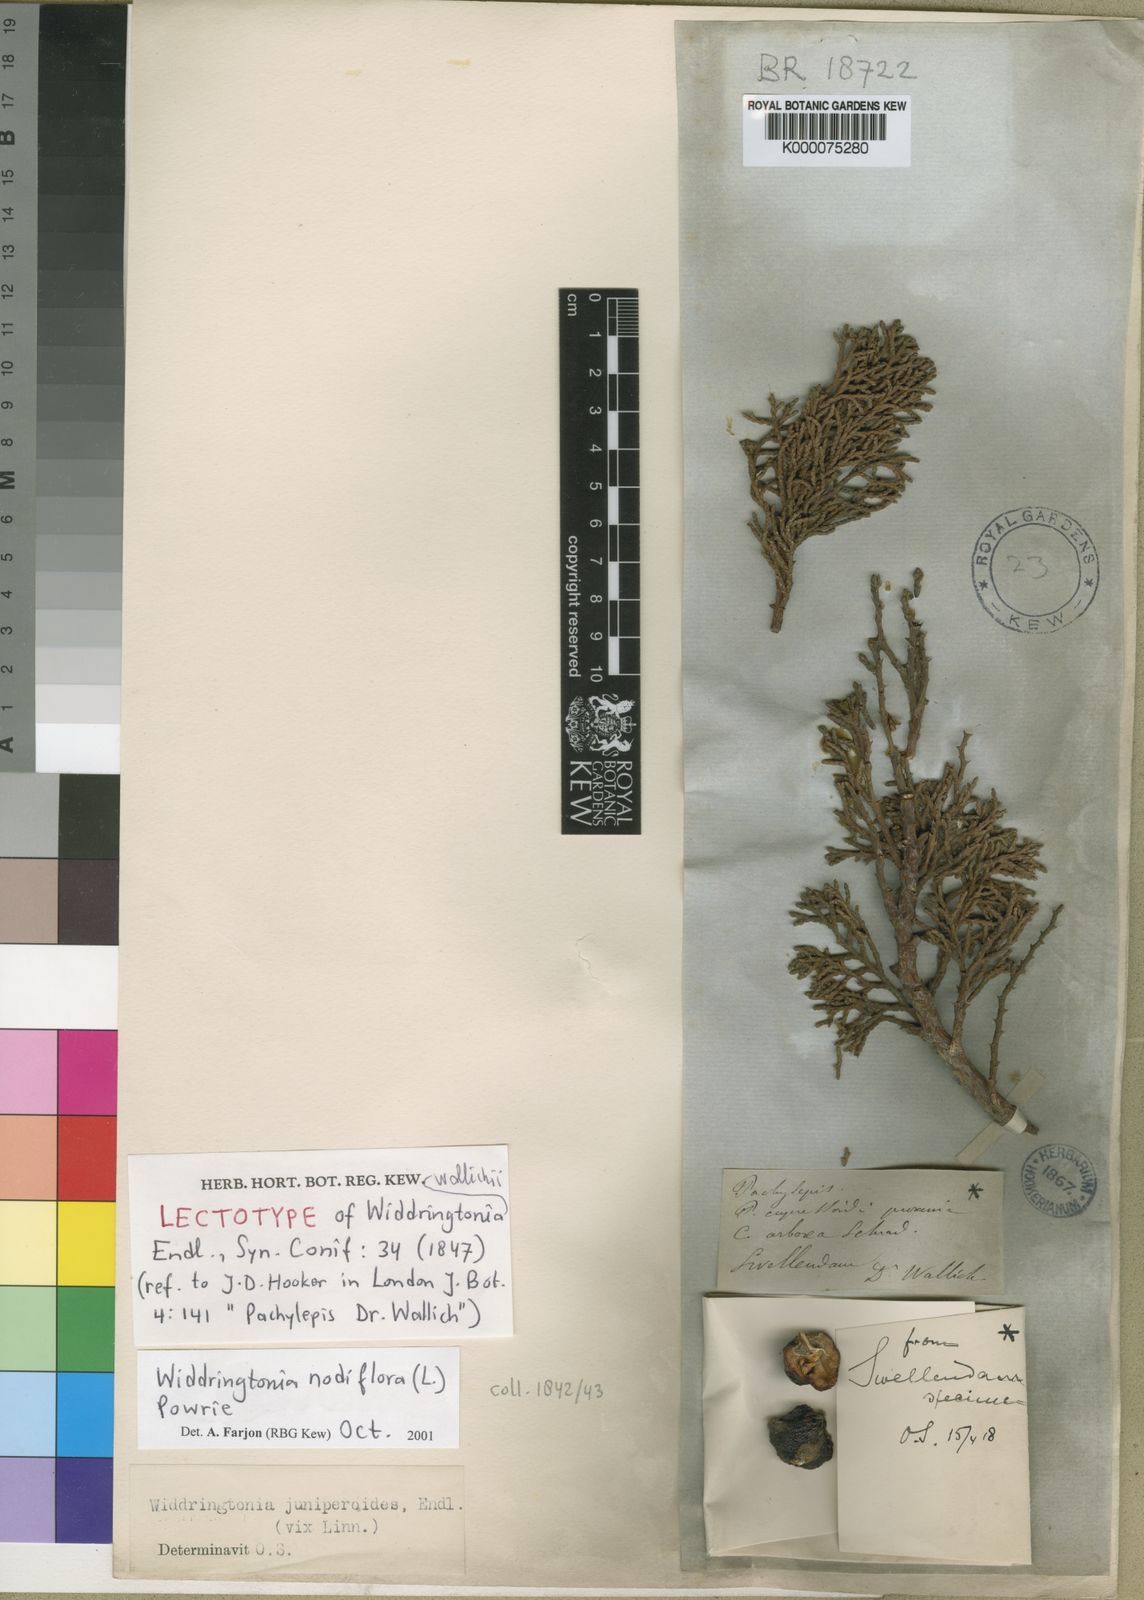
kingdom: Plantae
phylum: Tracheophyta
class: Pinopsida
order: Pinales
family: Cupressaceae
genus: Widdringtonia
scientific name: Widdringtonia nodiflora
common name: Cape cypress
